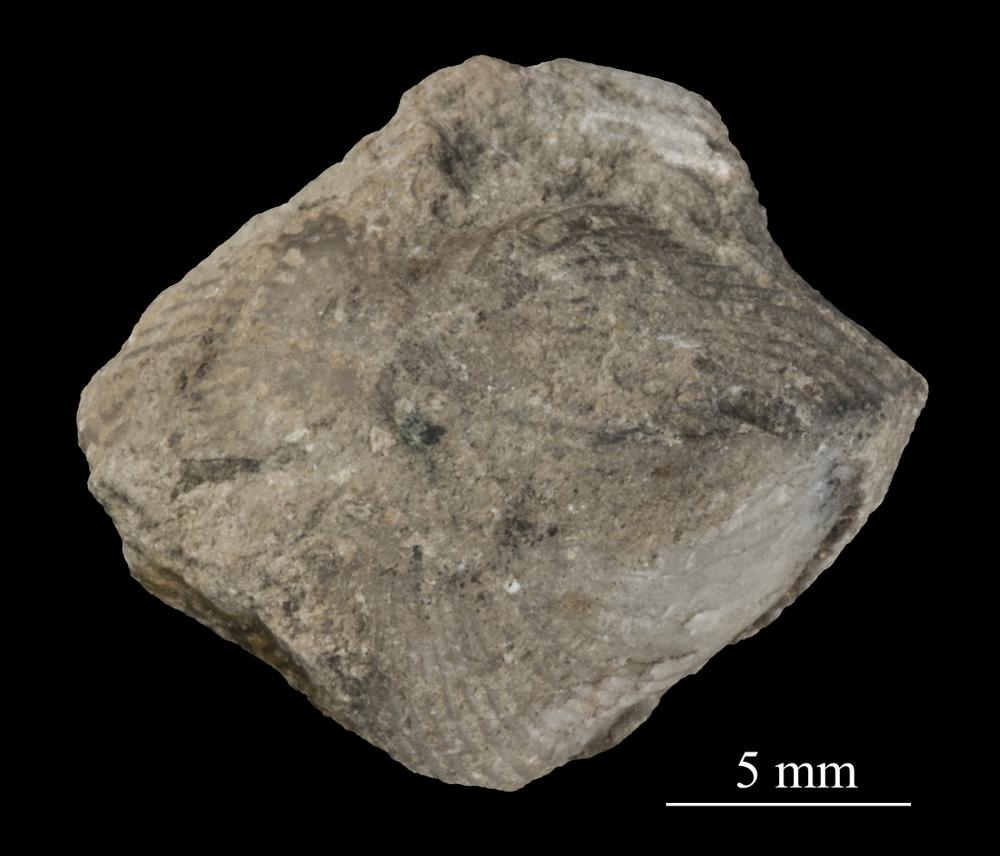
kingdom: Animalia
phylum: Brachiopoda
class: Rhynchonellata
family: Triplesiidae
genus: Cliftonia
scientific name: Cliftonia
